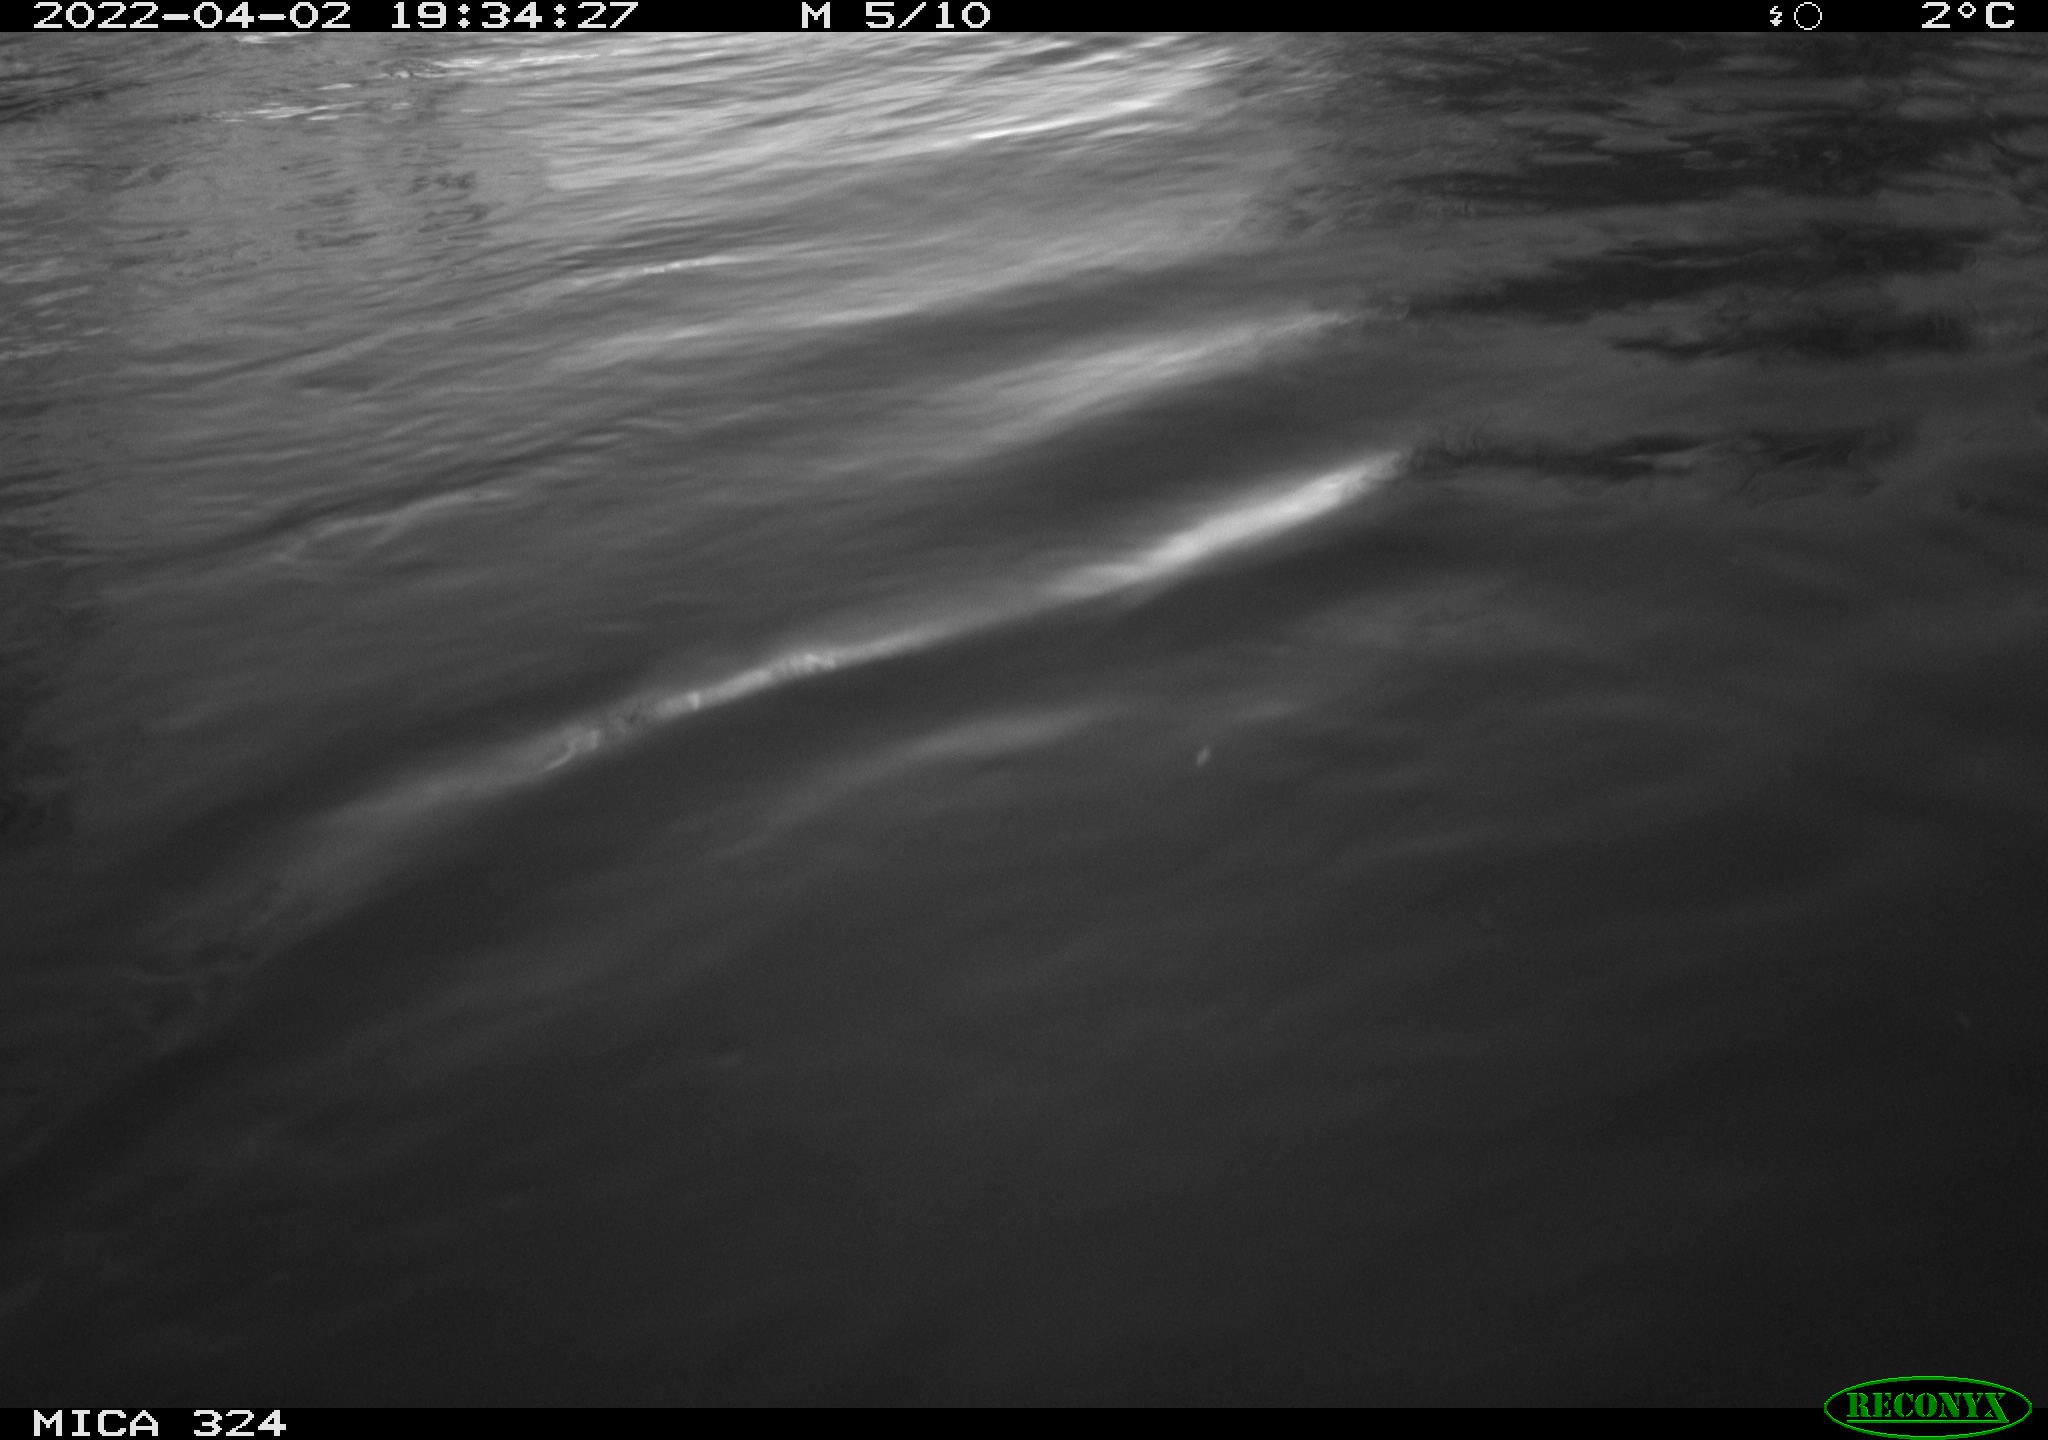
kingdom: Animalia
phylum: Chordata
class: Mammalia
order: Rodentia
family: Cricetidae
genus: Ondatra
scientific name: Ondatra zibethicus
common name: Muskrat
